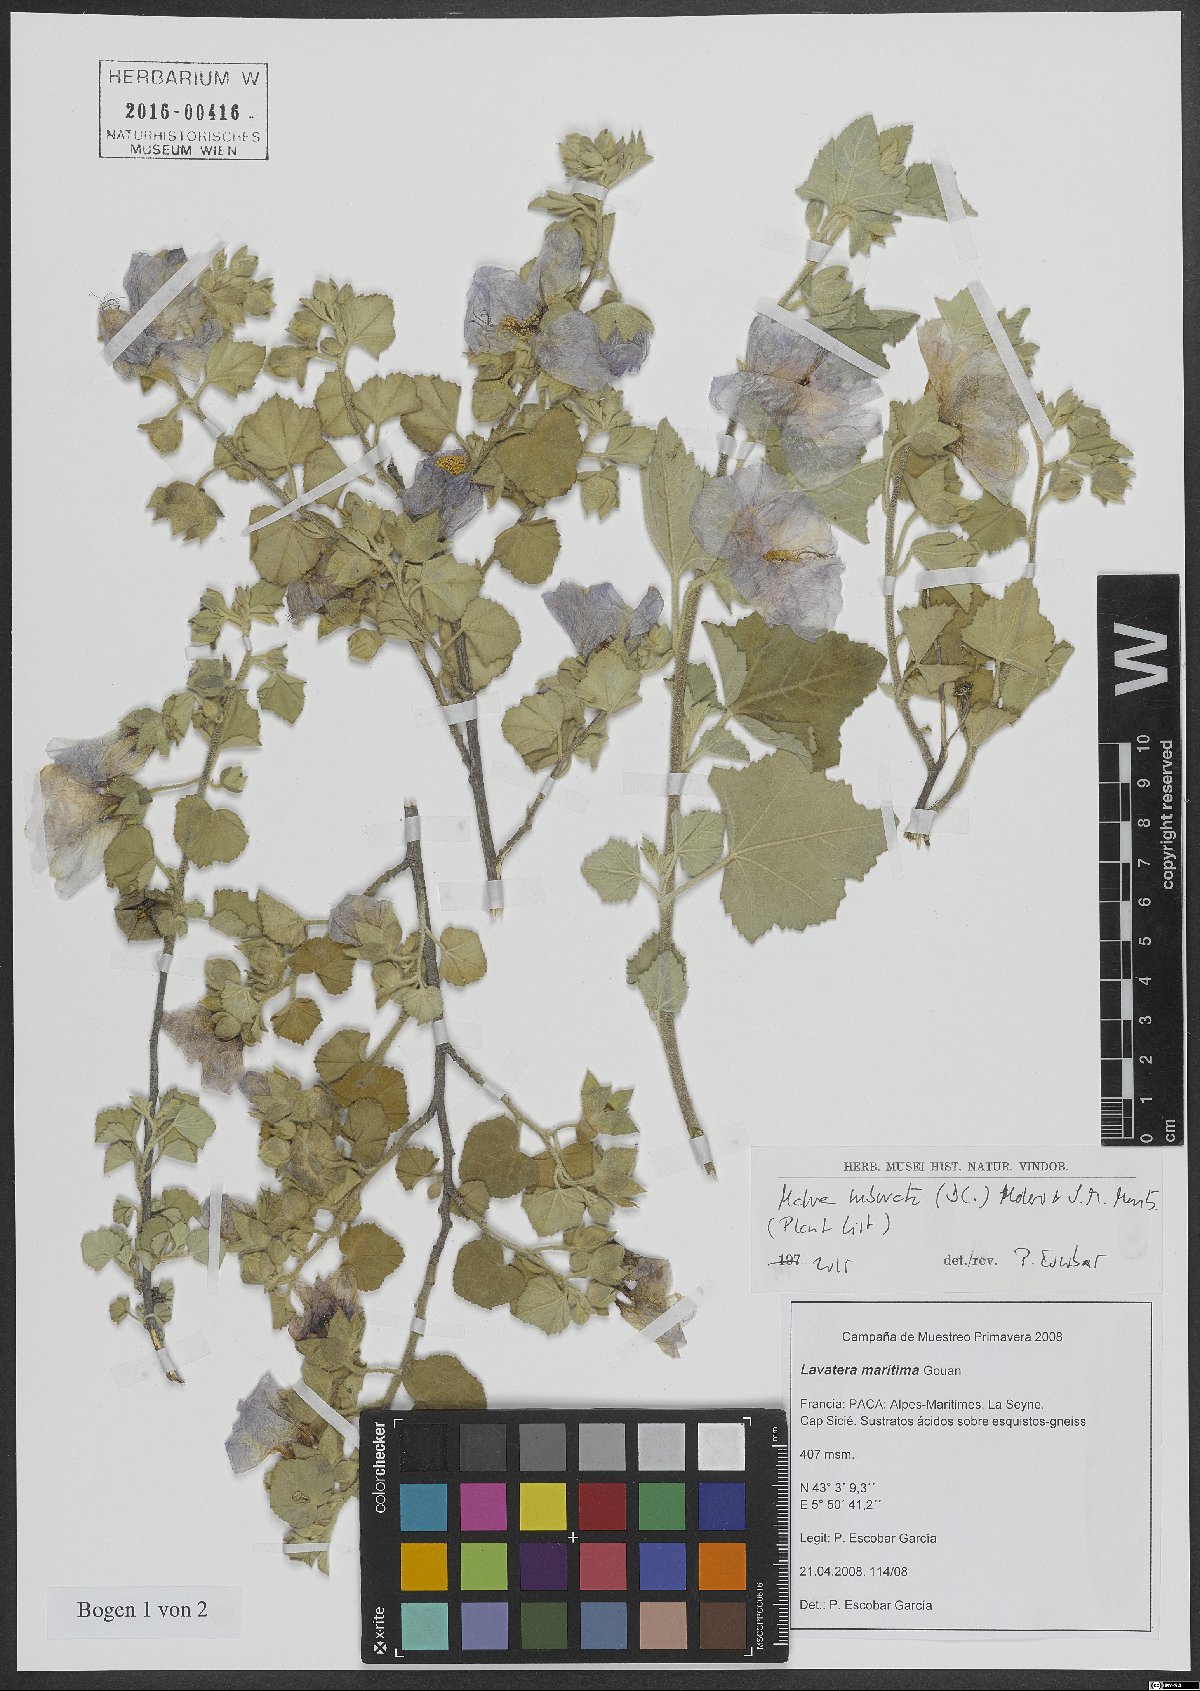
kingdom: Plantae
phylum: Tracheophyta
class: Magnoliopsida
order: Malvales
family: Malvaceae
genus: Malva
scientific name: Malva subovata
